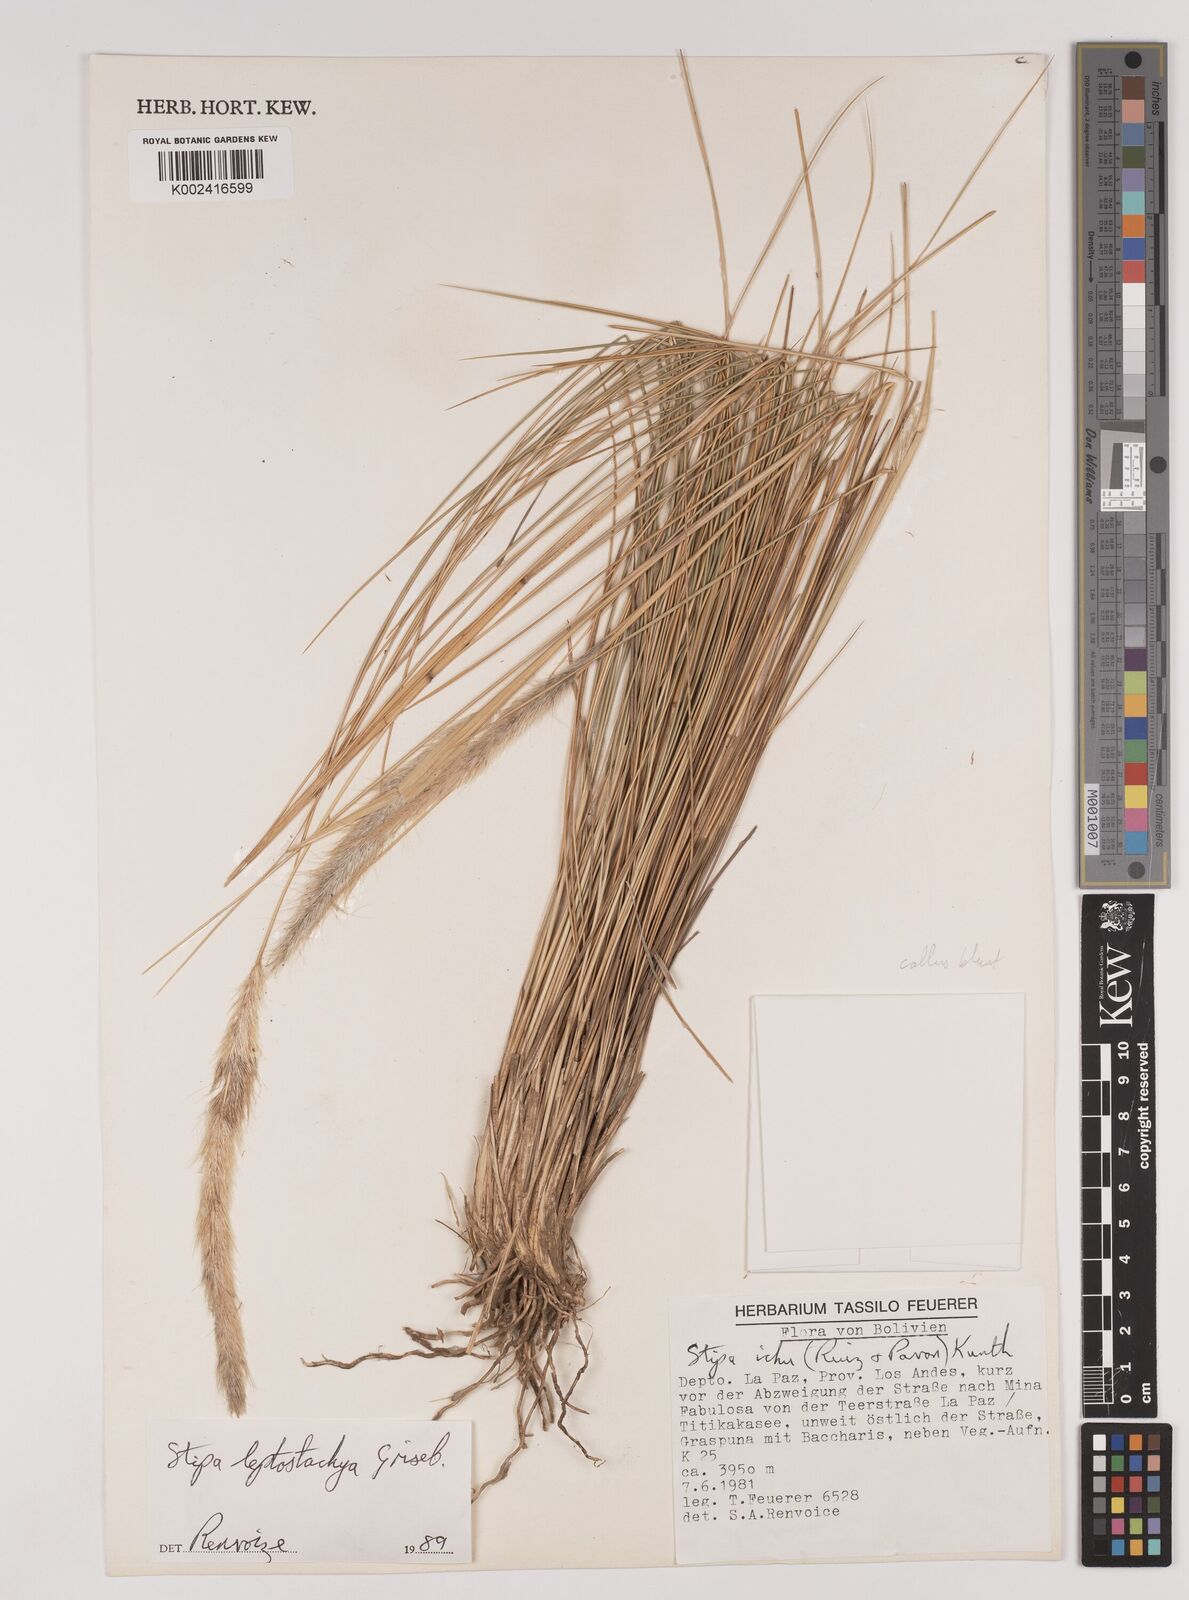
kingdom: Plantae
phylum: Tracheophyta
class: Liliopsida
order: Poales
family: Poaceae
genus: Jarava
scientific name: Jarava leptostachya
